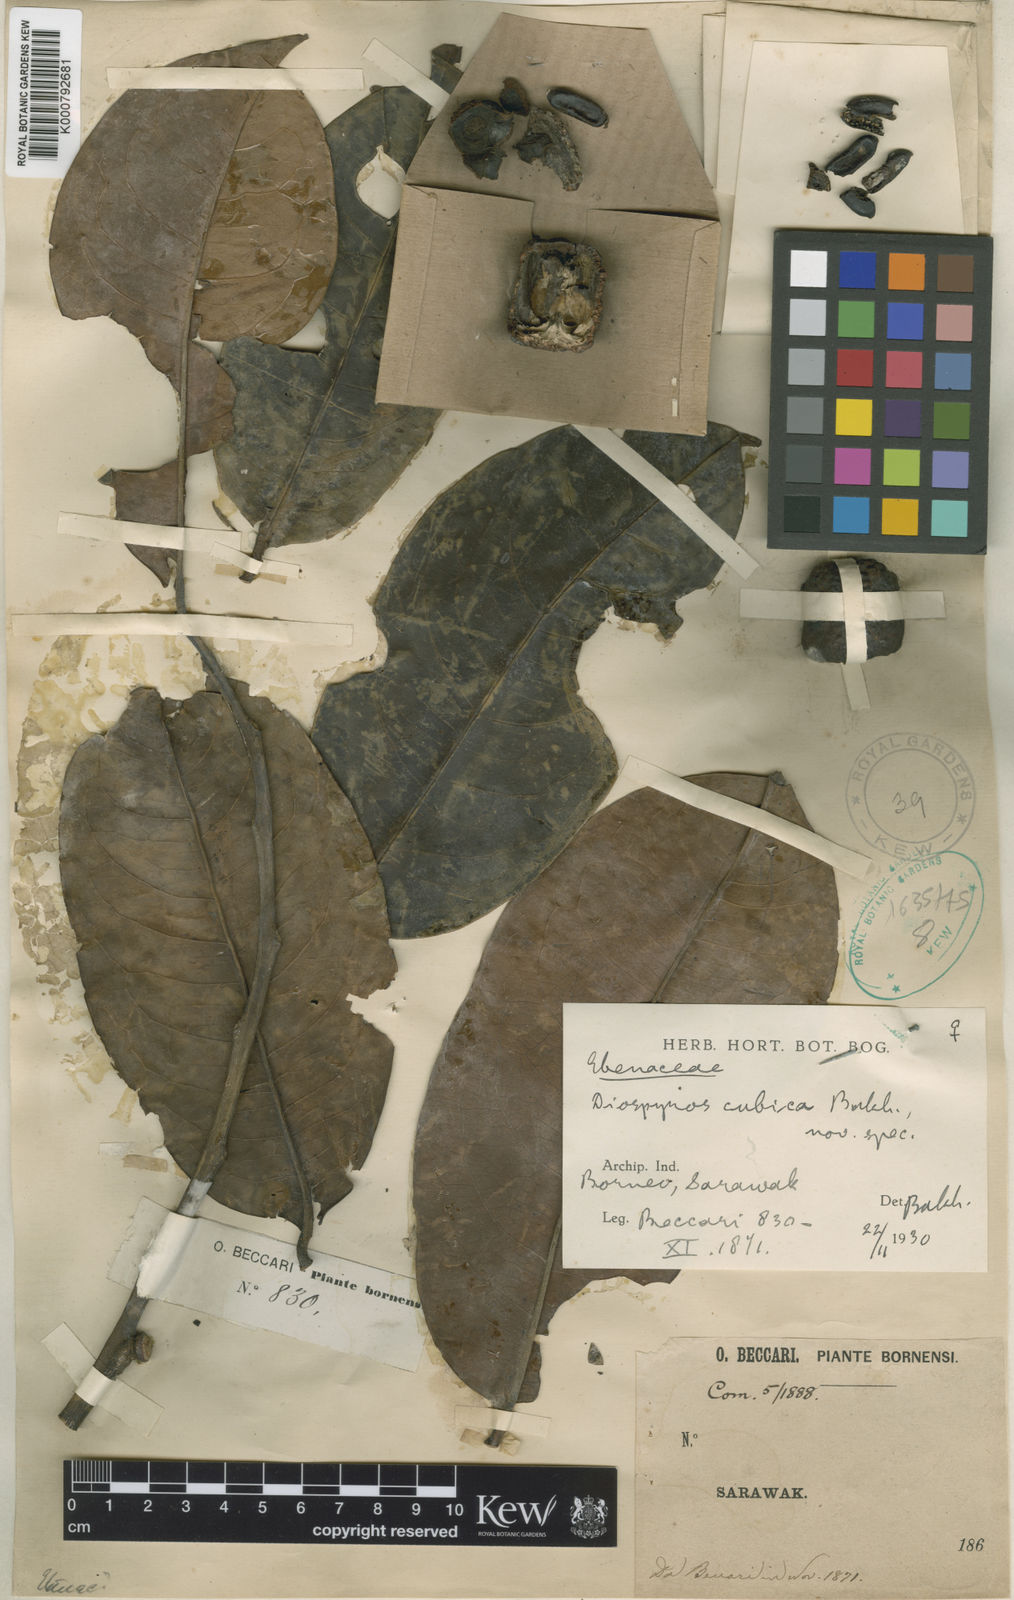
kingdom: Plantae
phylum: Tracheophyta
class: Magnoliopsida
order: Ericales
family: Ebenaceae
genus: Diospyros
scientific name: Diospyros oblonga
